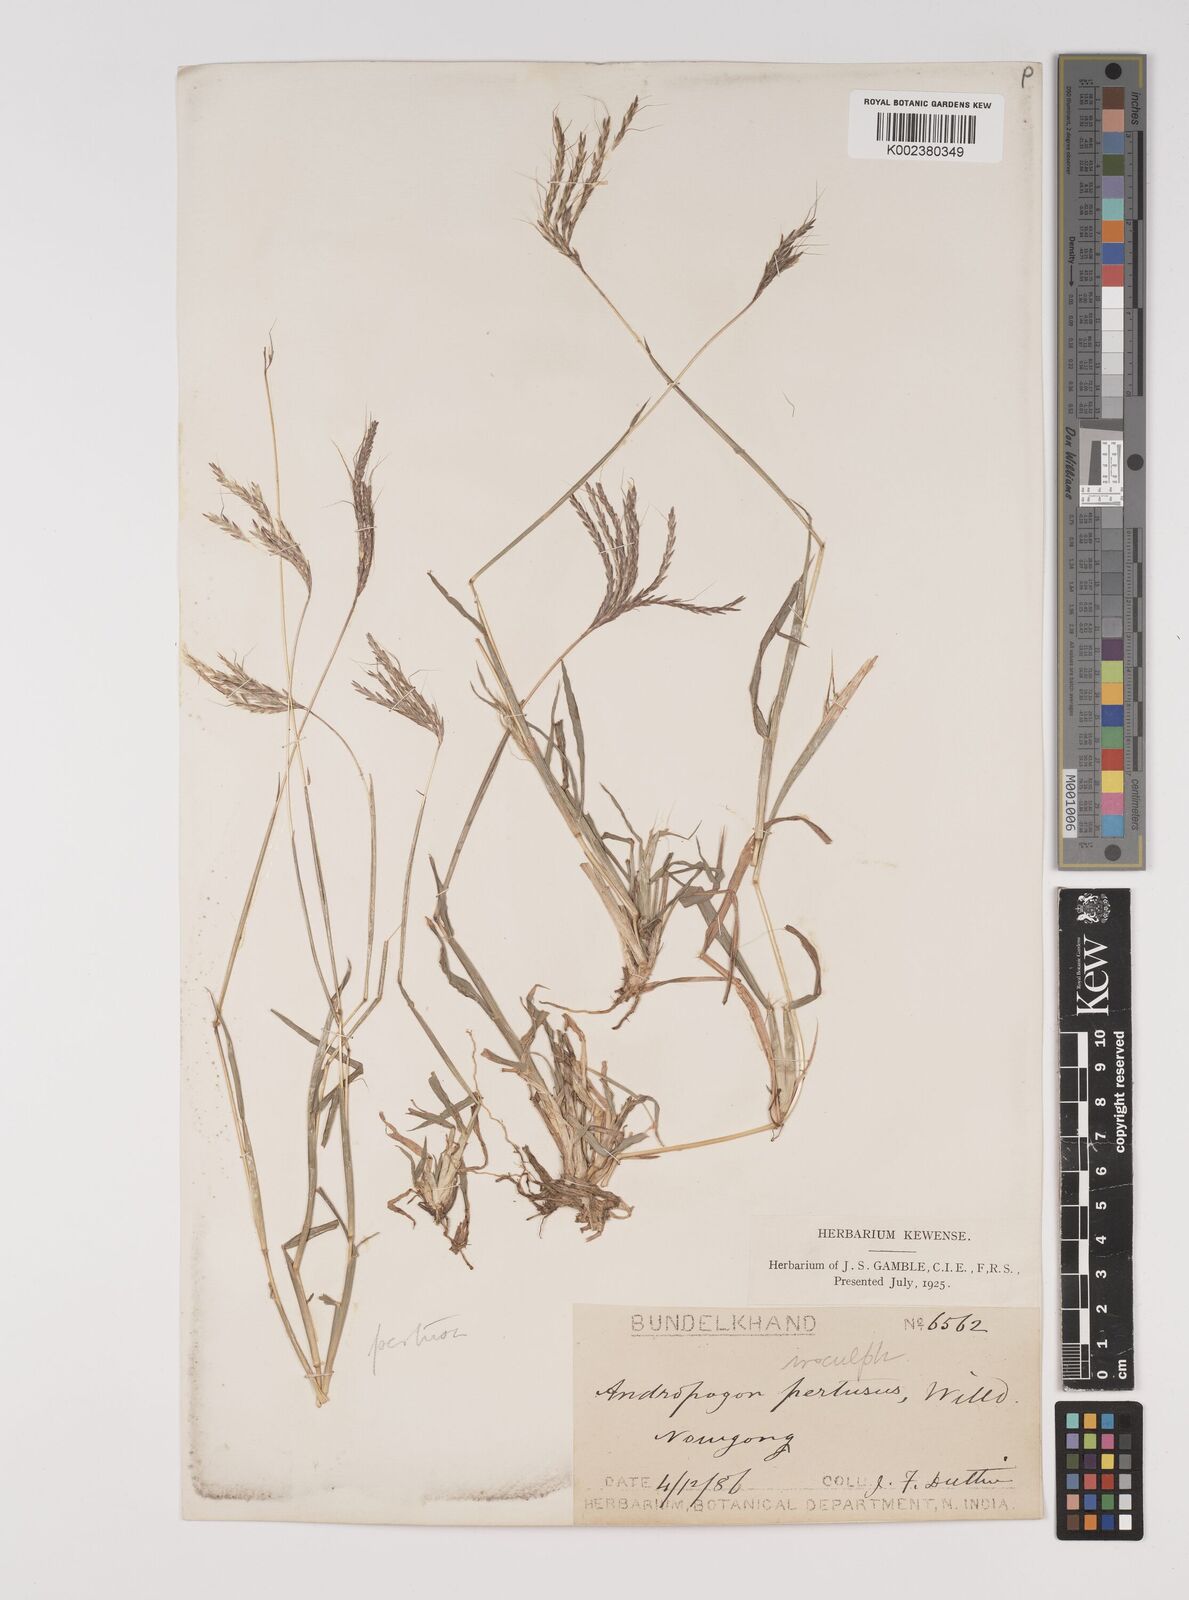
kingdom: Plantae
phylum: Tracheophyta
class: Liliopsida
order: Poales
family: Poaceae
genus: Bothriochloa
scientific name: Bothriochloa pertusa
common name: Pitted beardgrass
